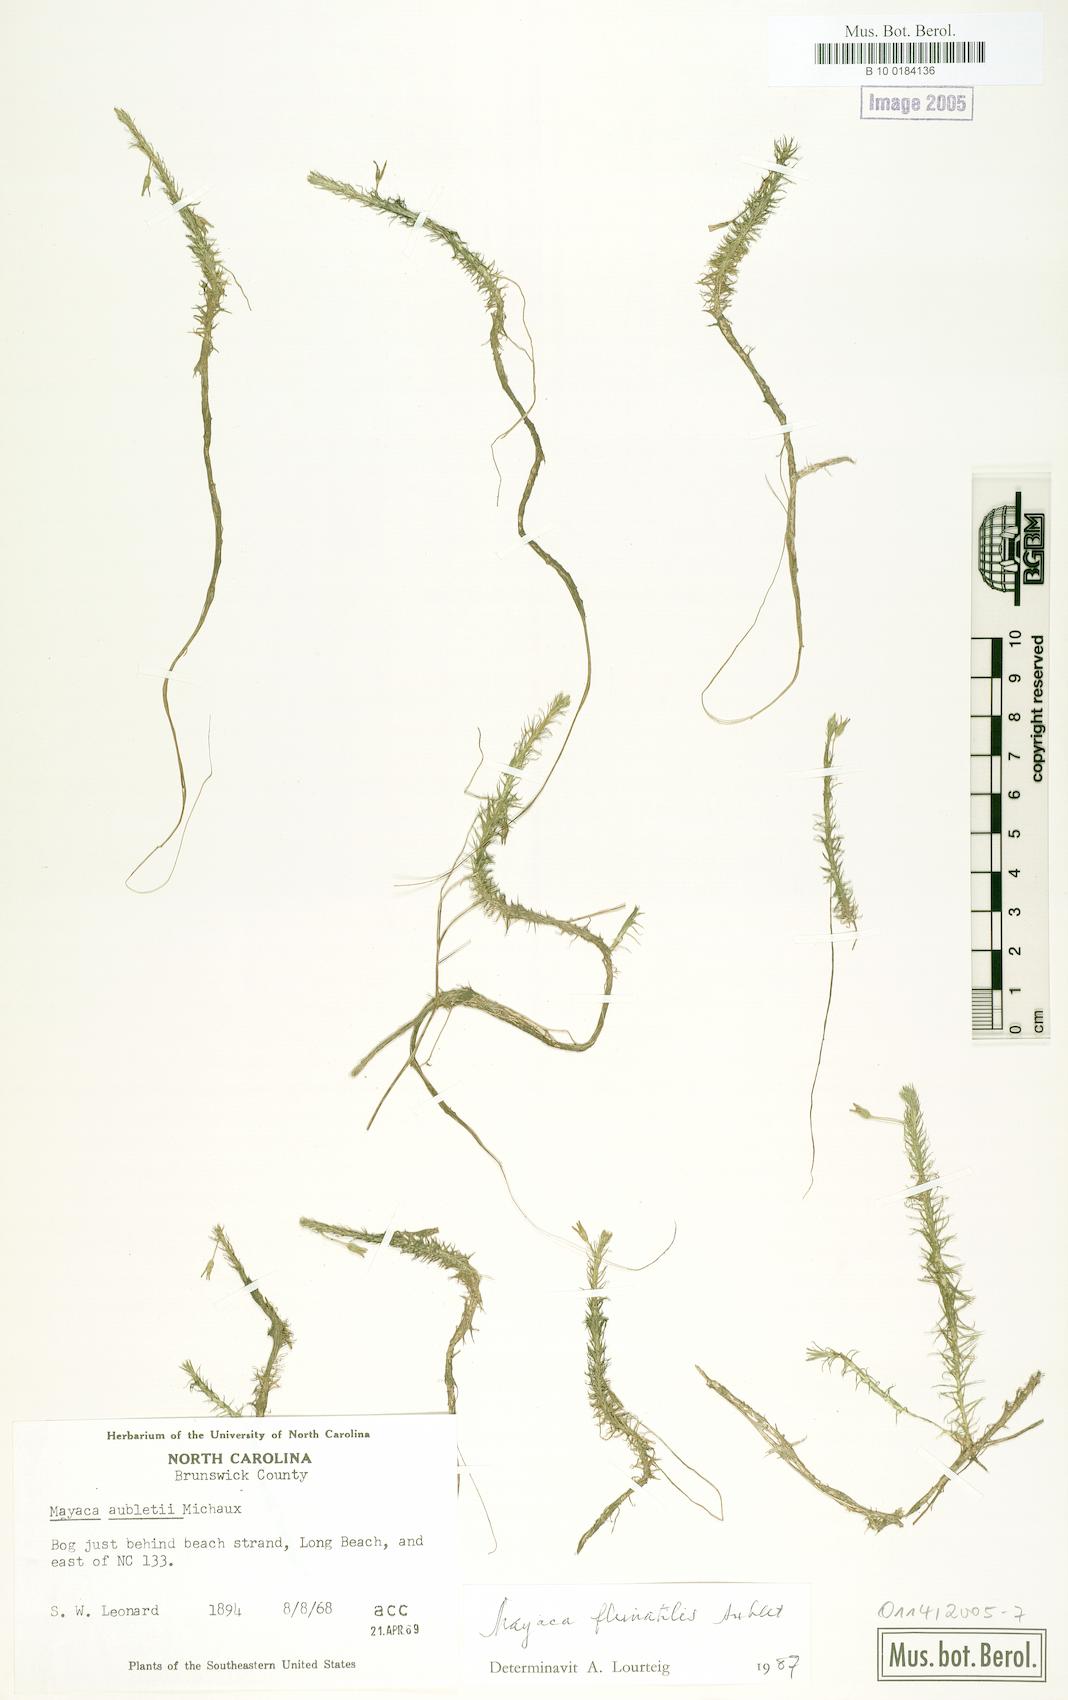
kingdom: Plantae
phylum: Tracheophyta
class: Liliopsida
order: Poales
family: Mayacaceae
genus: Mayaca
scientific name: Mayaca fluviatilis
